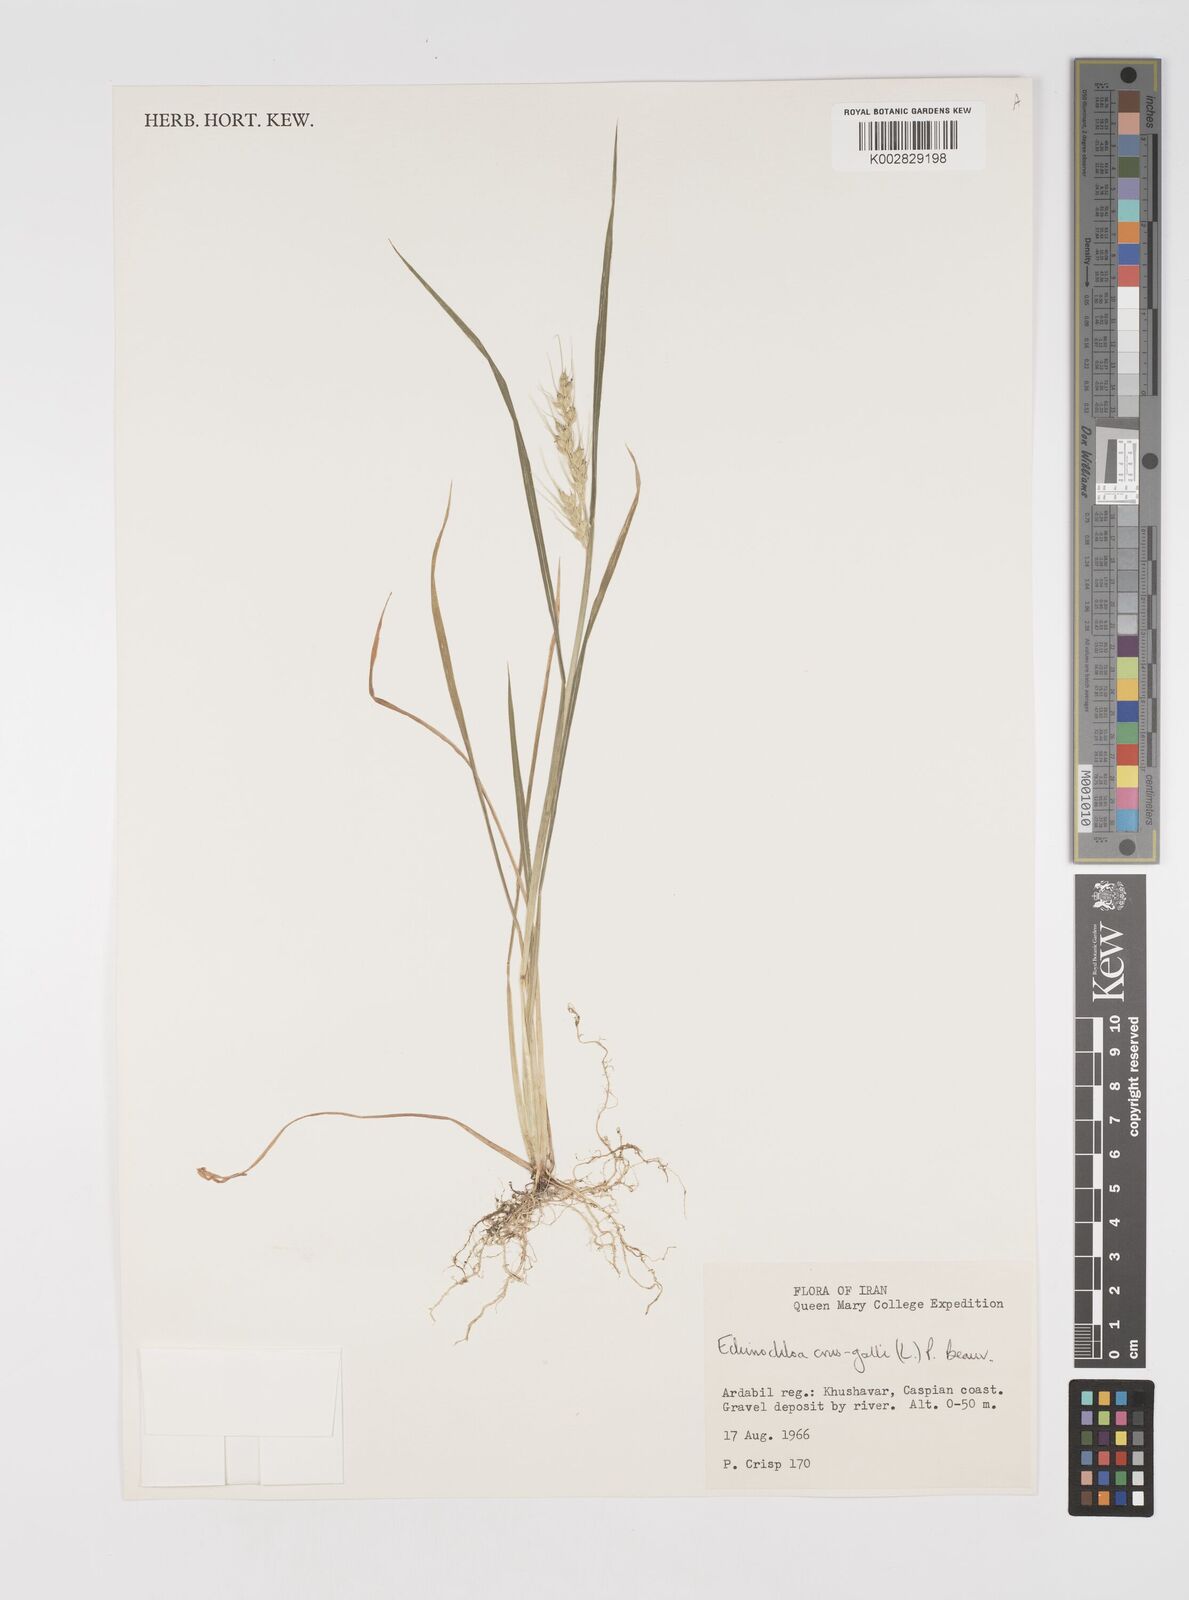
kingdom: Plantae
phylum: Tracheophyta
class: Liliopsida
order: Poales
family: Poaceae
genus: Echinochloa
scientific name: Echinochloa crus-galli
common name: Cockspur
